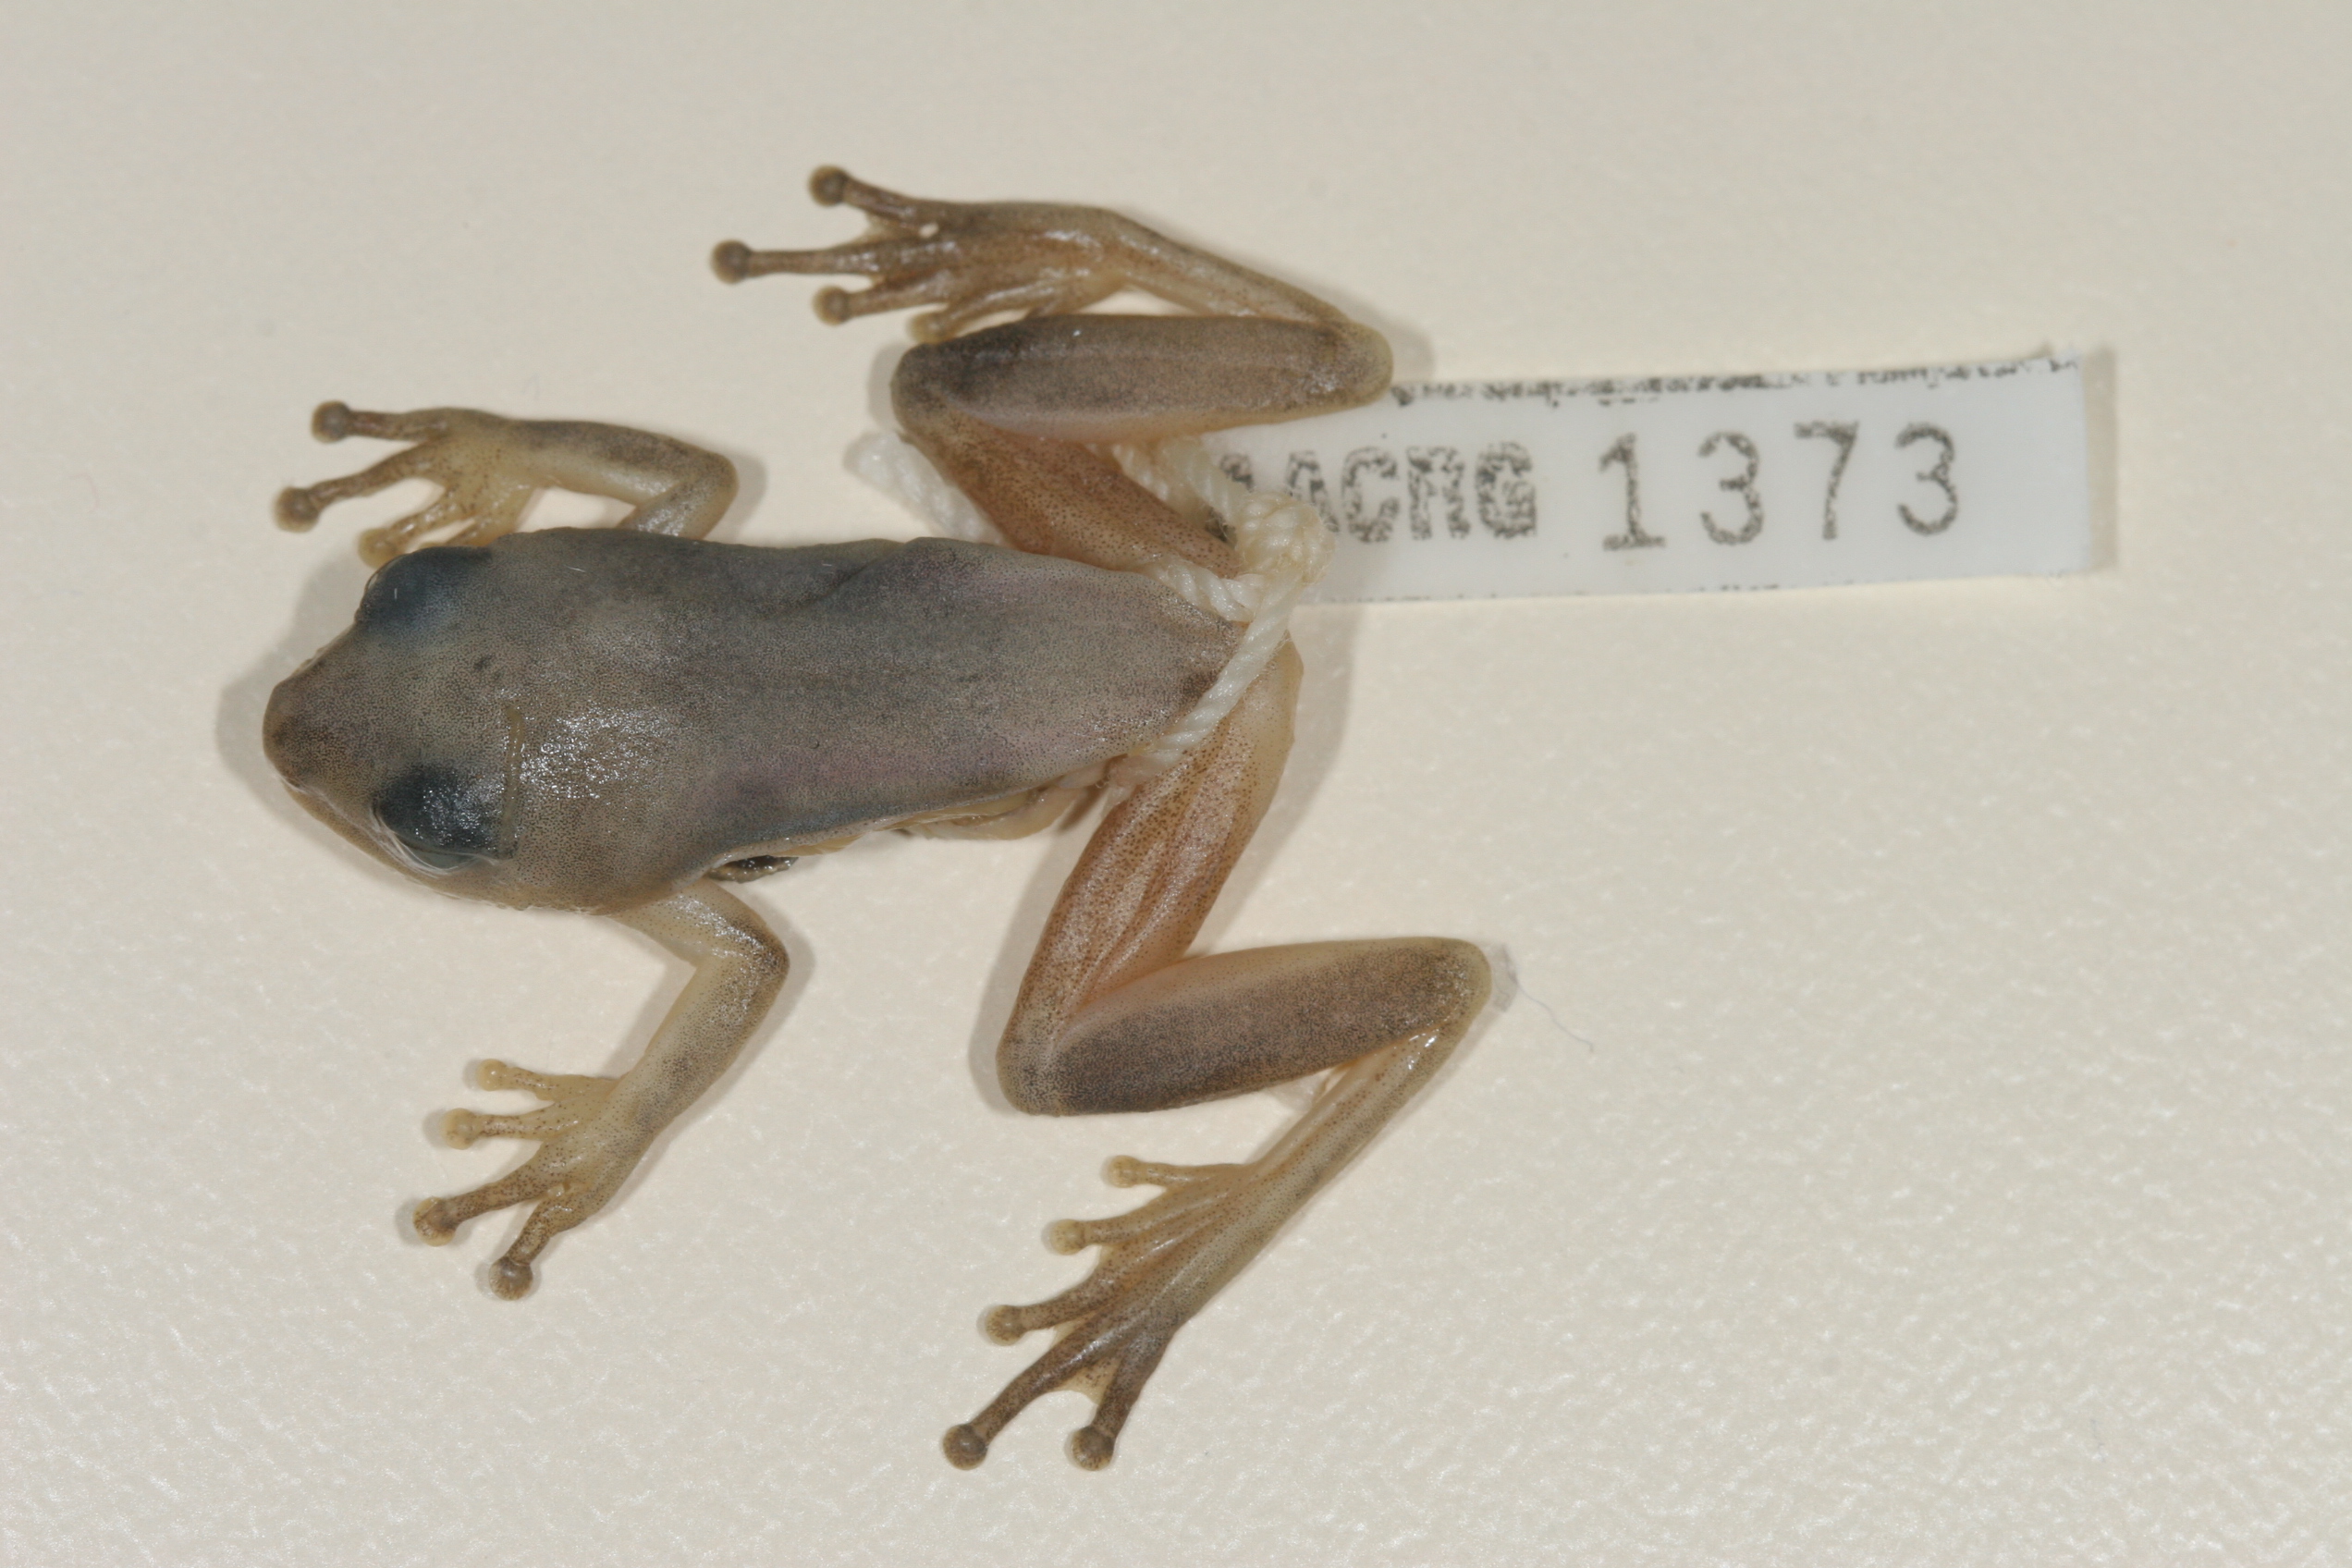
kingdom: Animalia
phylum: Chordata
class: Amphibia
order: Anura
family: Hyperoliidae
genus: Hyperolius
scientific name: Hyperolius tuberilinguis
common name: Tinker reed frog
